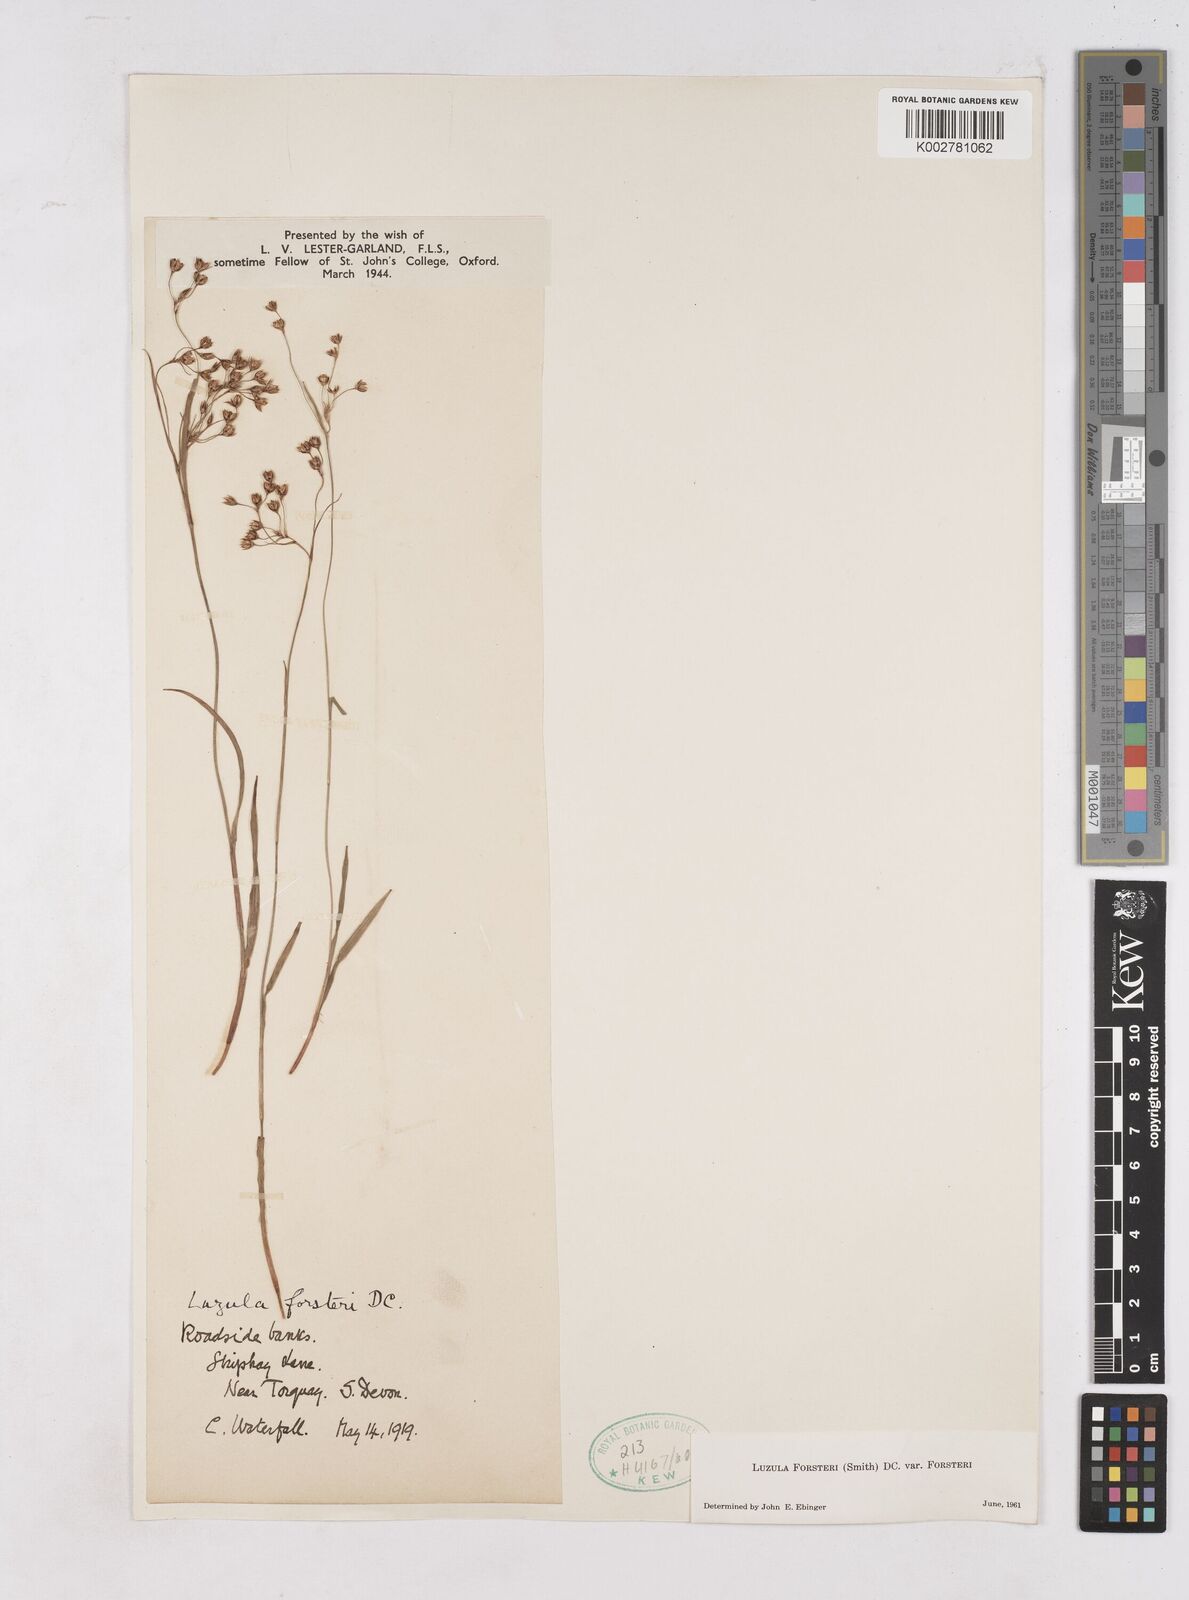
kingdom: Plantae
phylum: Tracheophyta
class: Liliopsida
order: Poales
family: Juncaceae
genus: Luzula
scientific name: Luzula forsteri
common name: Southern wood-rush
